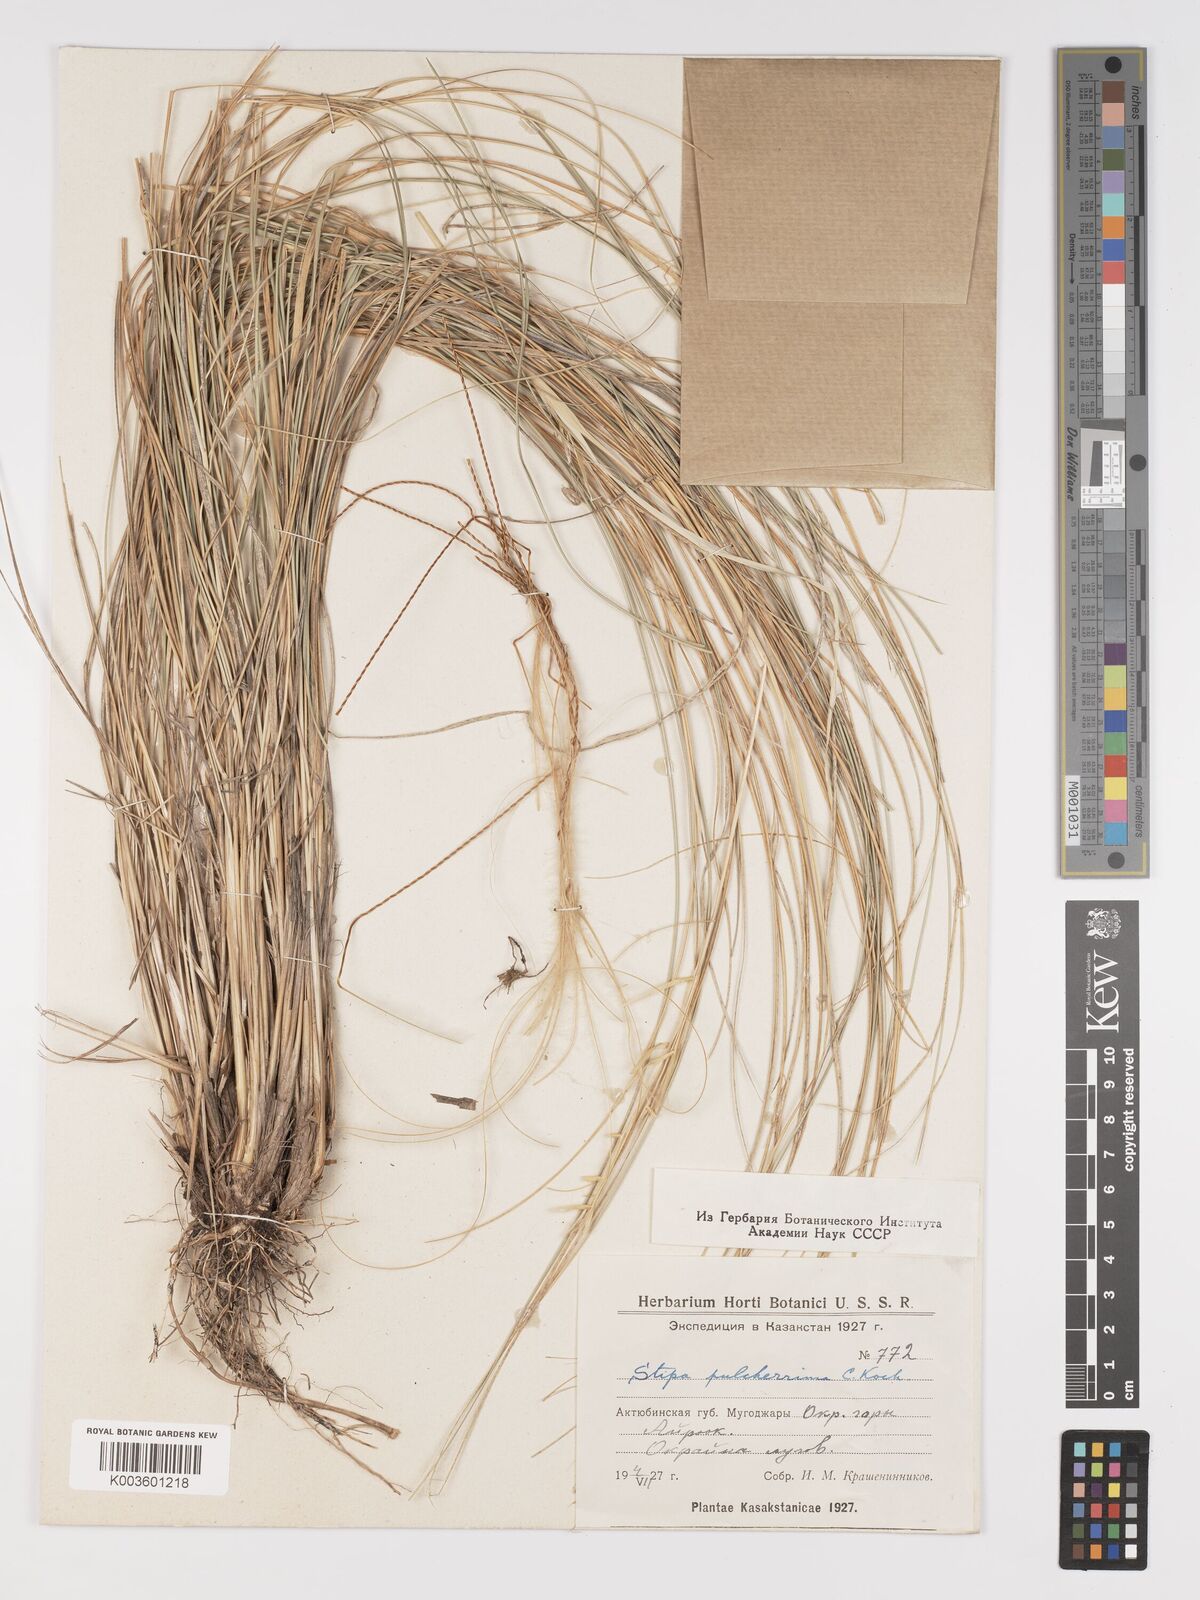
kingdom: Plantae
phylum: Tracheophyta
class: Liliopsida
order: Poales
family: Poaceae
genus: Stipa
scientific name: Stipa pulcherrima
